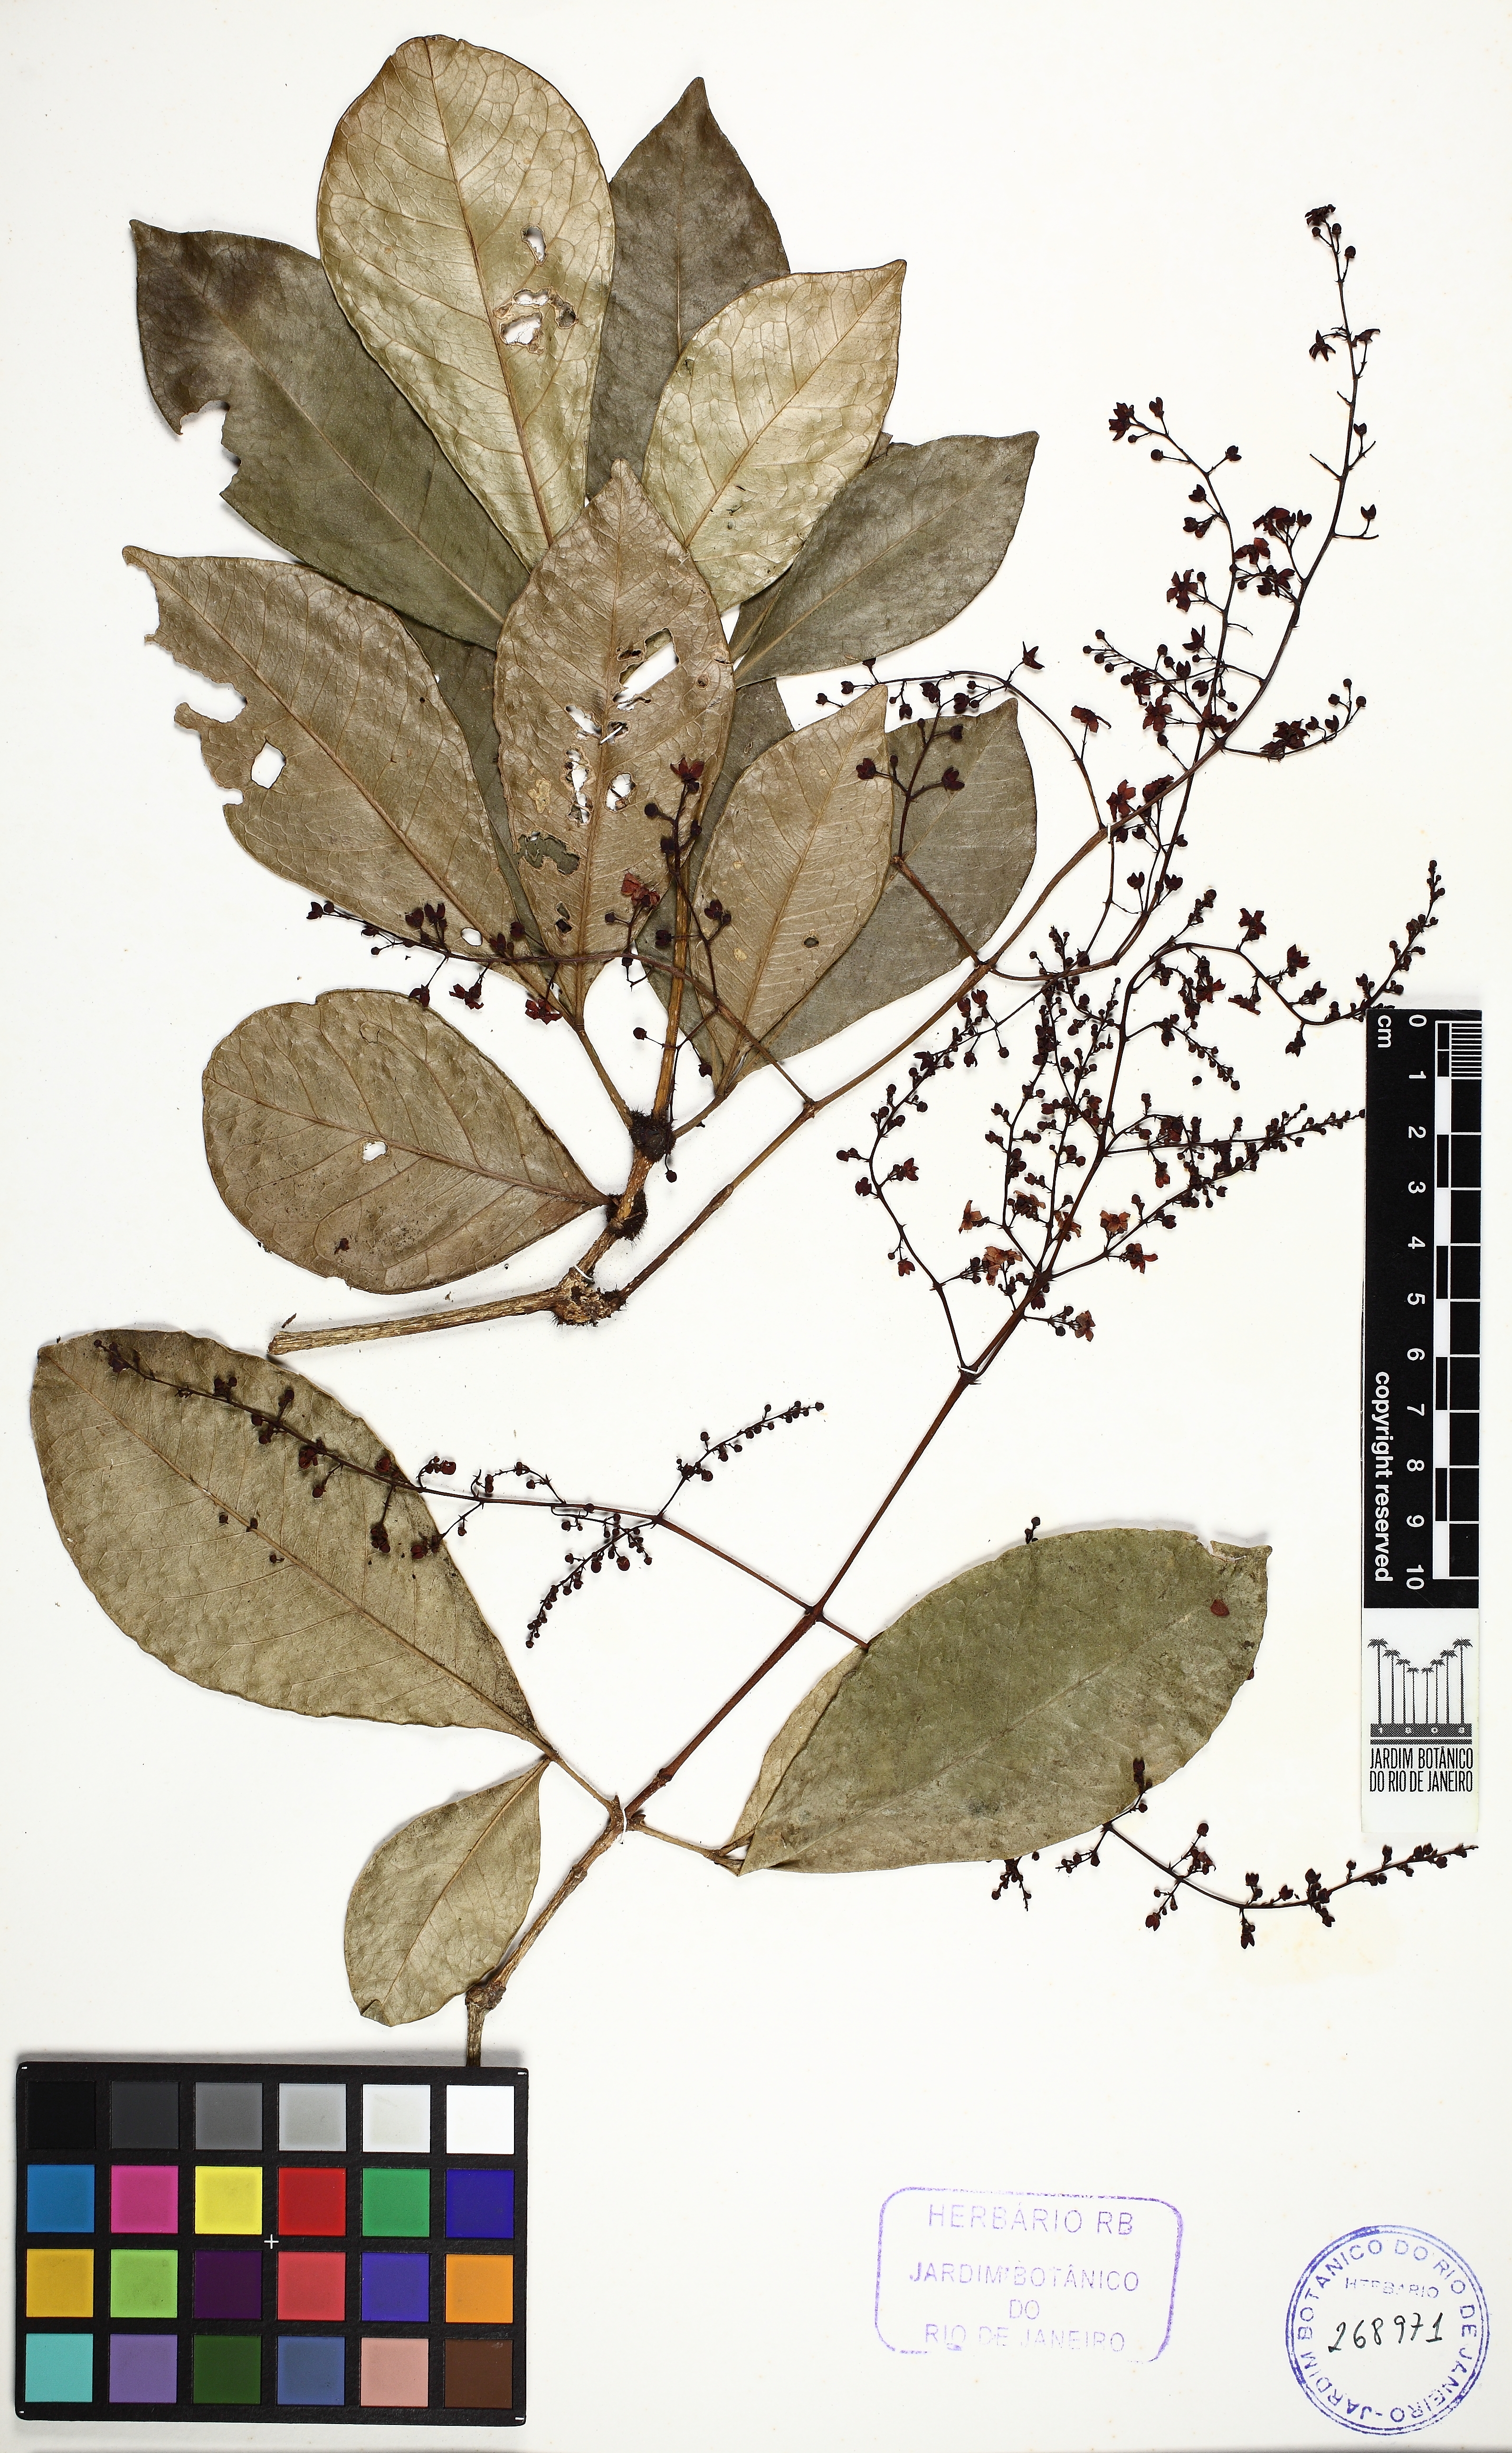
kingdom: Plantae
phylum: Tracheophyta
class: Magnoliopsida
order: Sapindales
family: Rutaceae
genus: Metrodorea
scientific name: Metrodorea nigra
